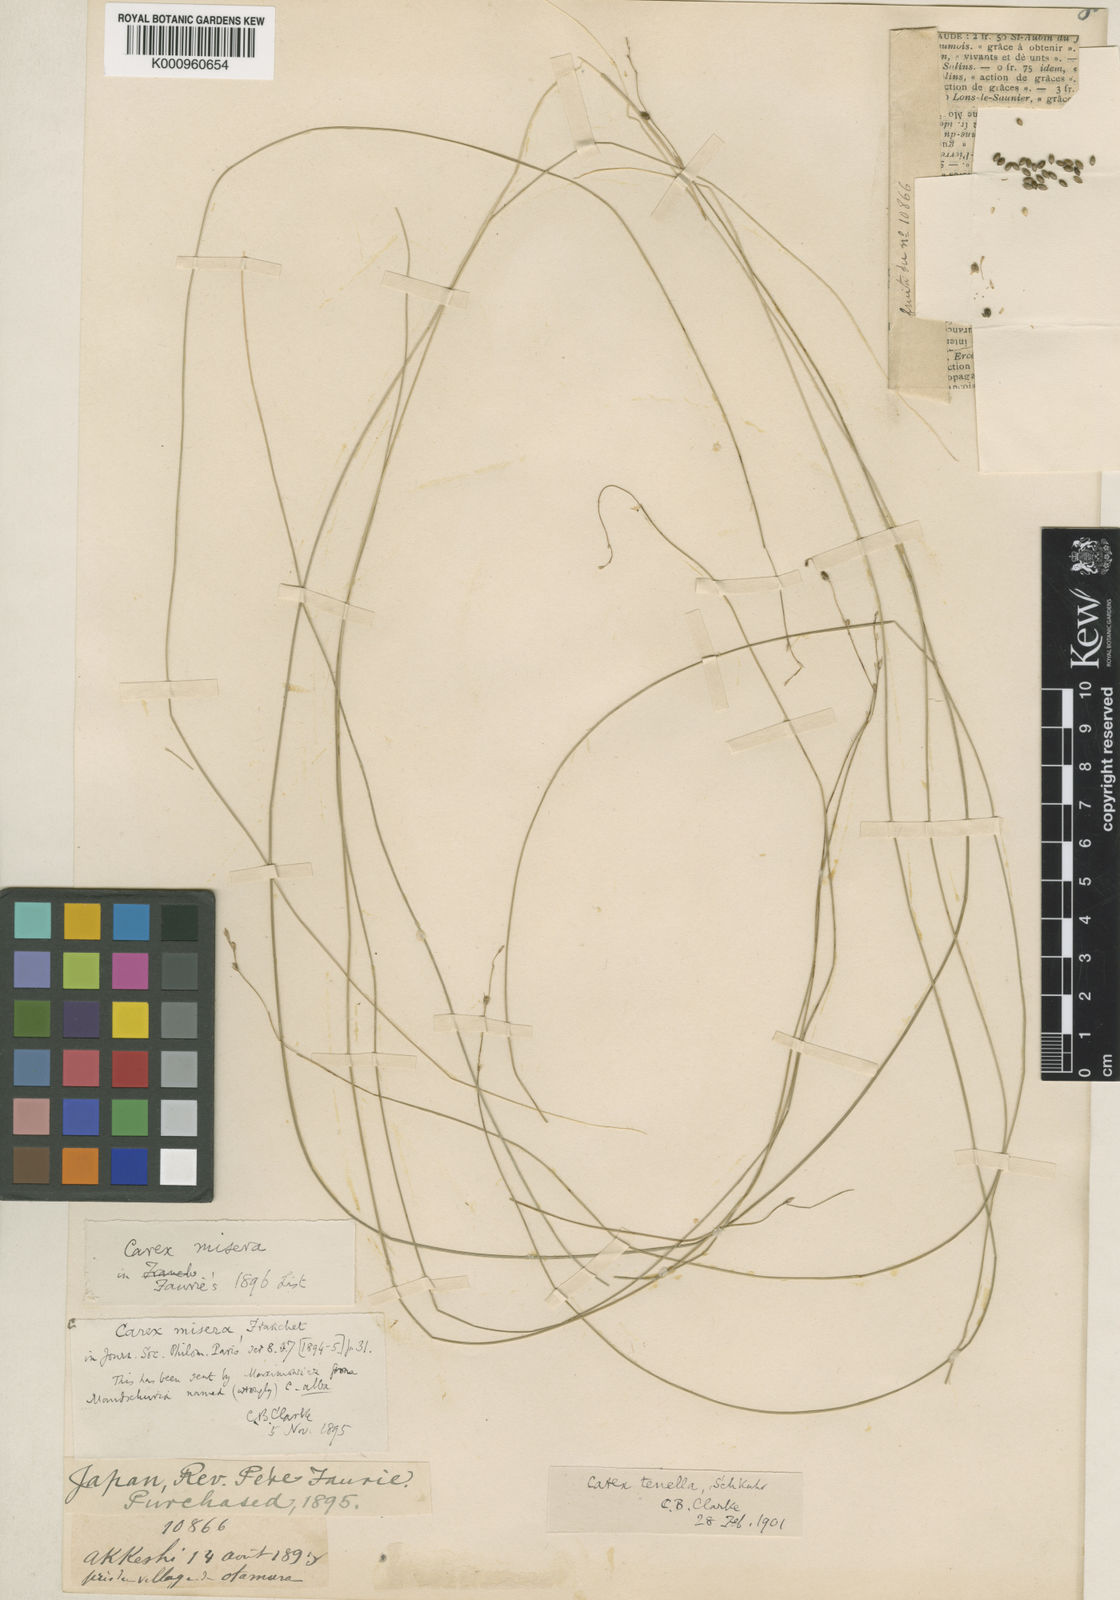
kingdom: Plantae
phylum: Tracheophyta
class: Liliopsida
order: Poales
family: Cyperaceae
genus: Carex
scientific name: Carex disperma
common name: Short-leaved sedge
